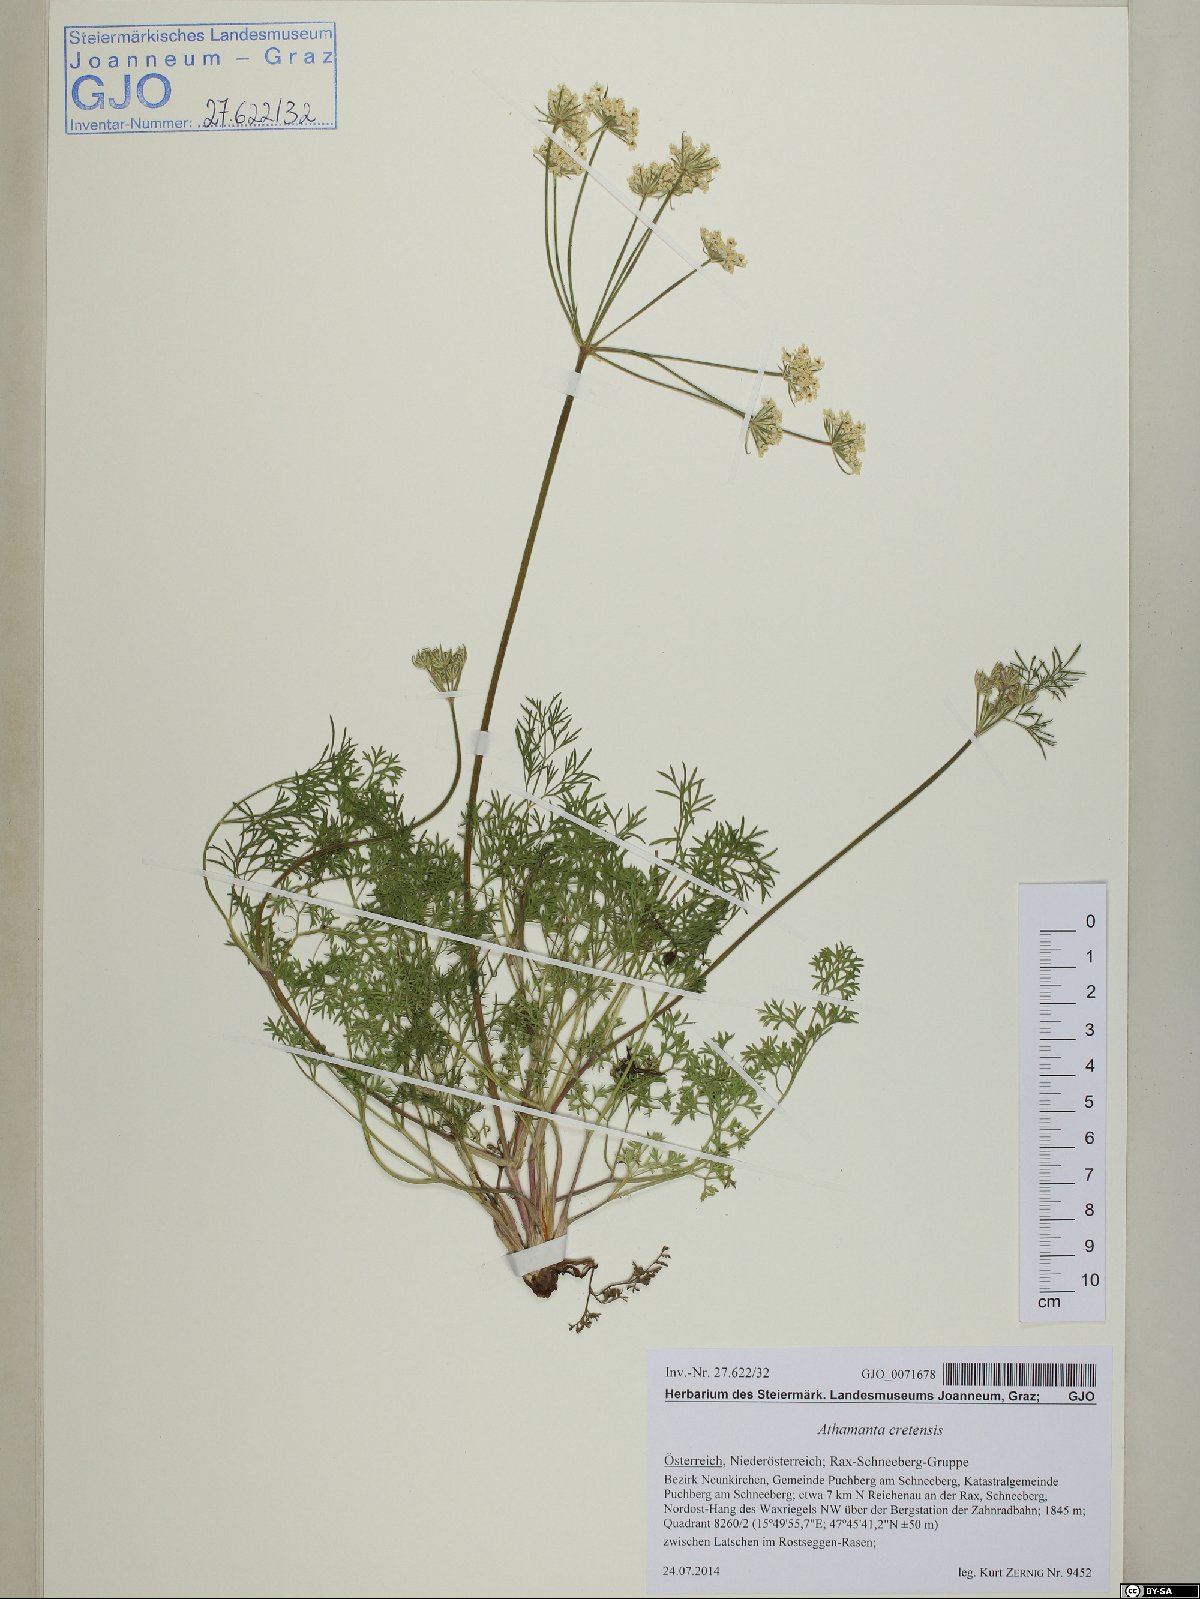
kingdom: Plantae
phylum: Tracheophyta
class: Magnoliopsida
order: Apiales
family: Apiaceae
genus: Athamanta
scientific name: Athamanta cretensis
